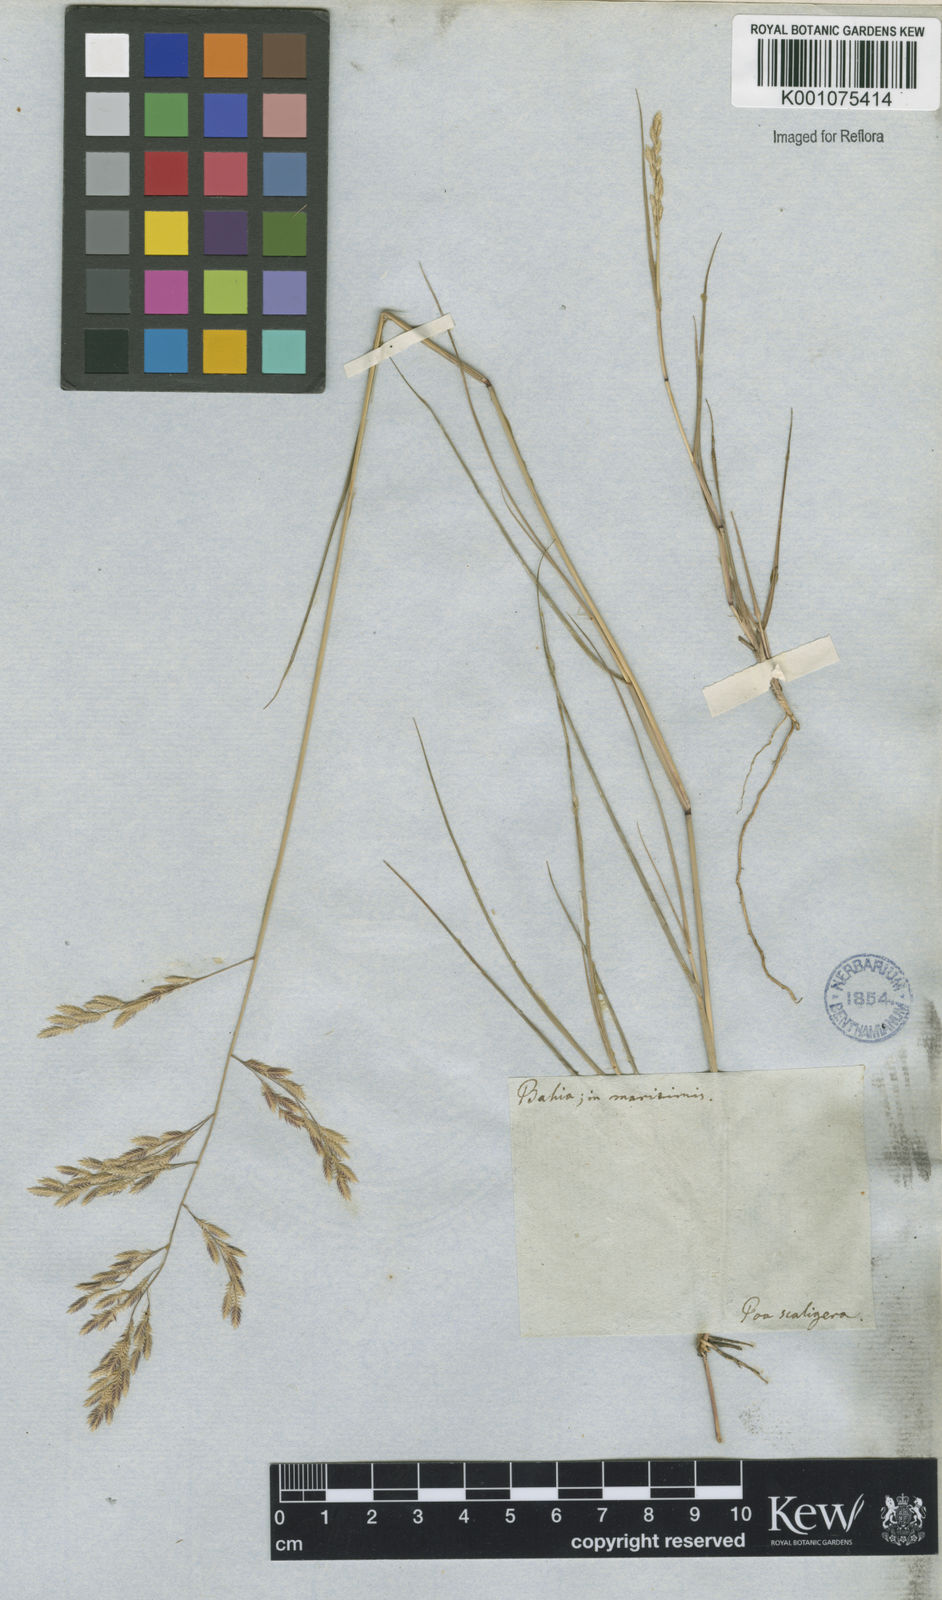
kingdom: Plantae
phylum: Tracheophyta
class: Liliopsida
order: Poales
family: Poaceae
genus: Eragrostis
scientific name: Eragrostis rufescens
